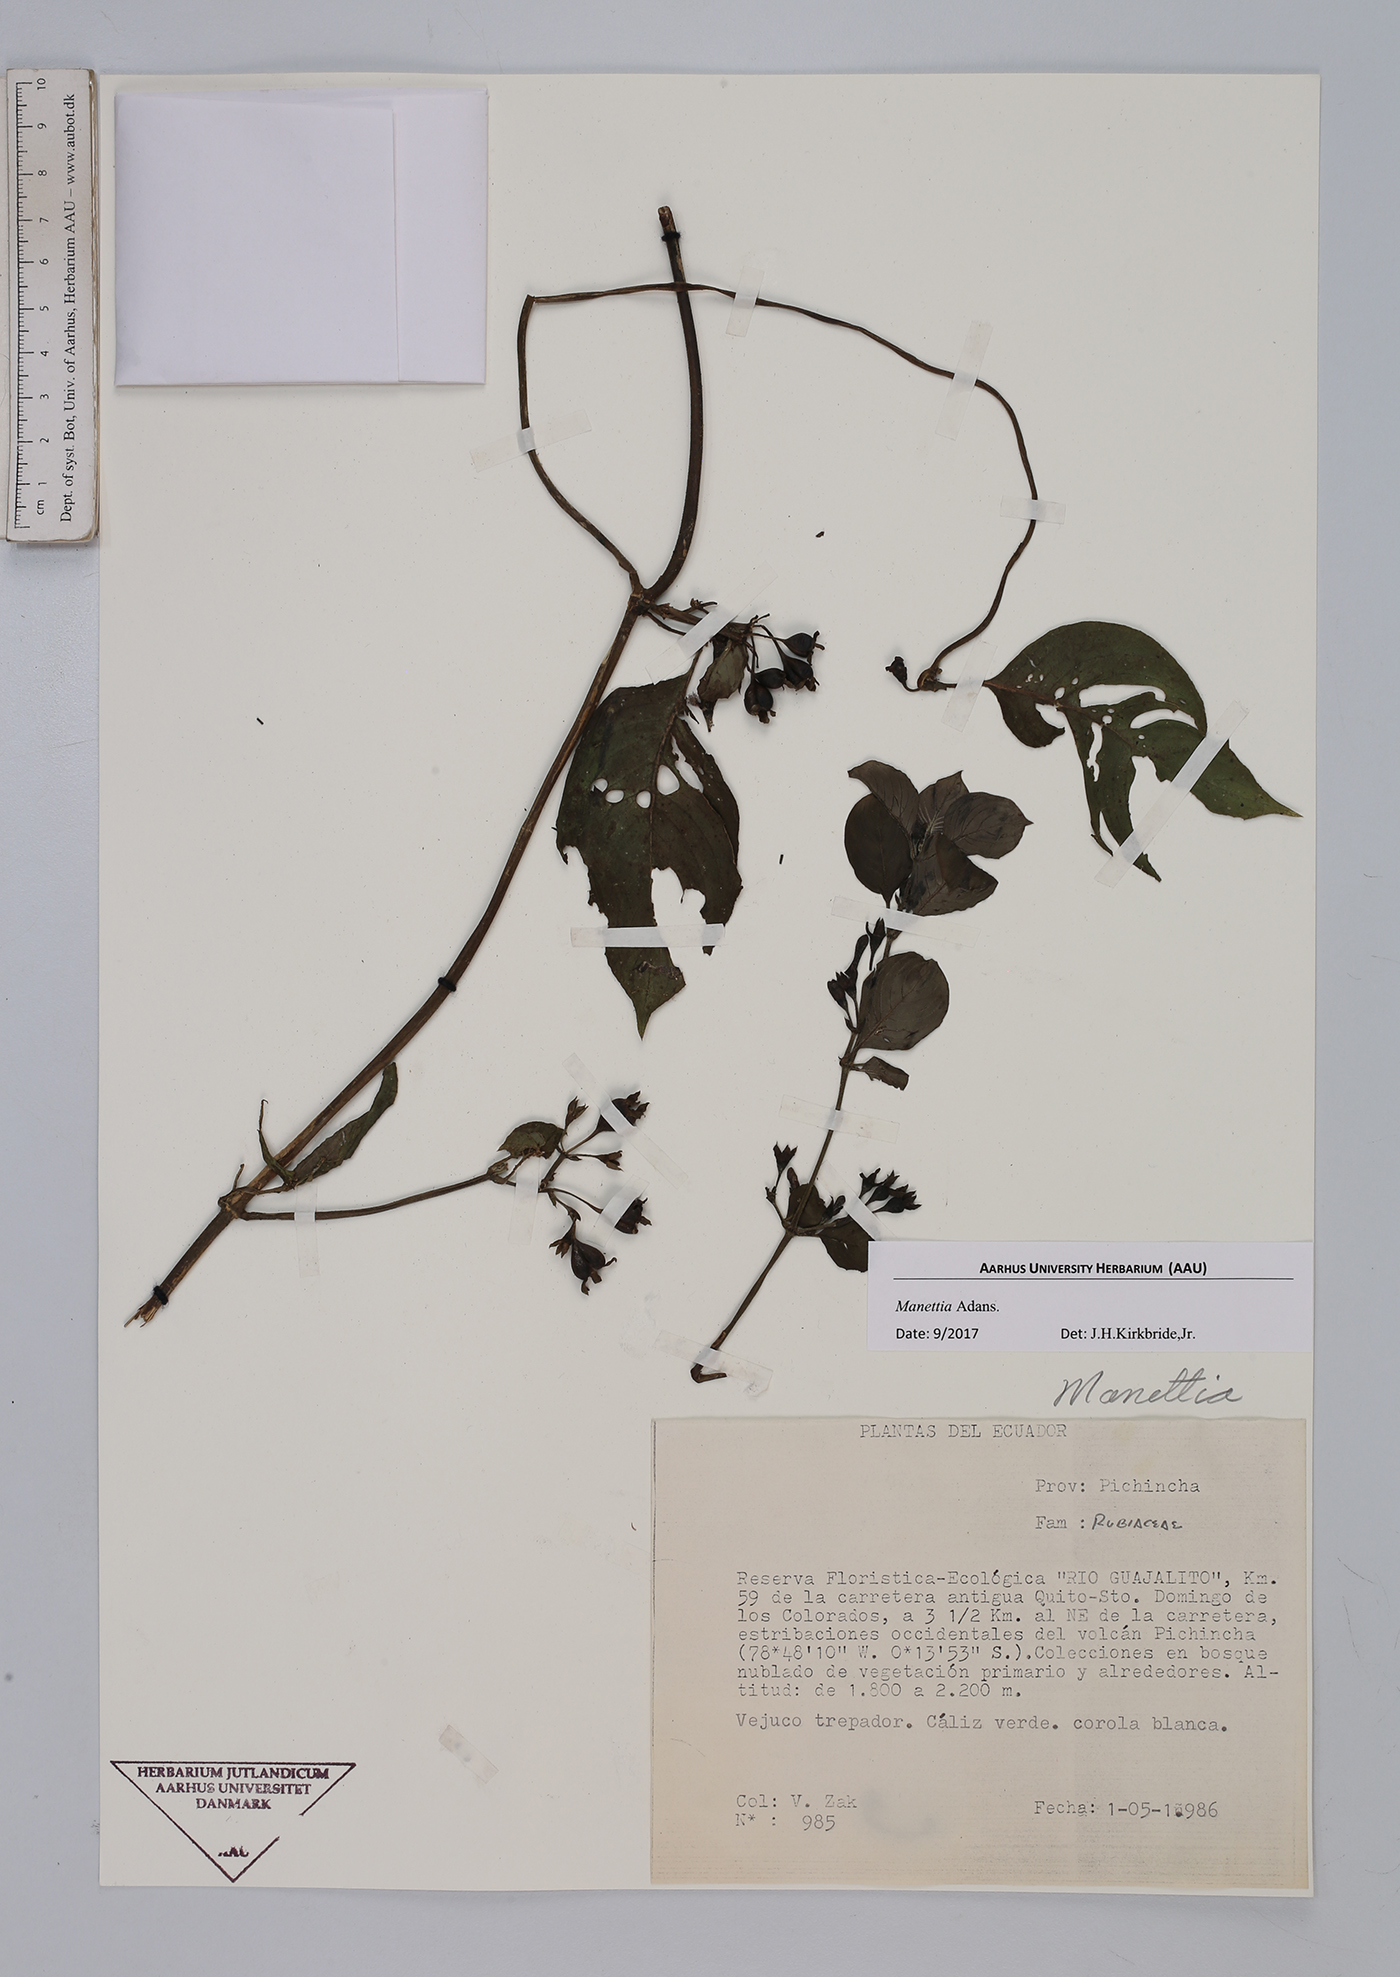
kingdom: Plantae
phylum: Tracheophyta
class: Magnoliopsida
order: Gentianales
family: Rubiaceae
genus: Manettia
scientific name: Manettia
